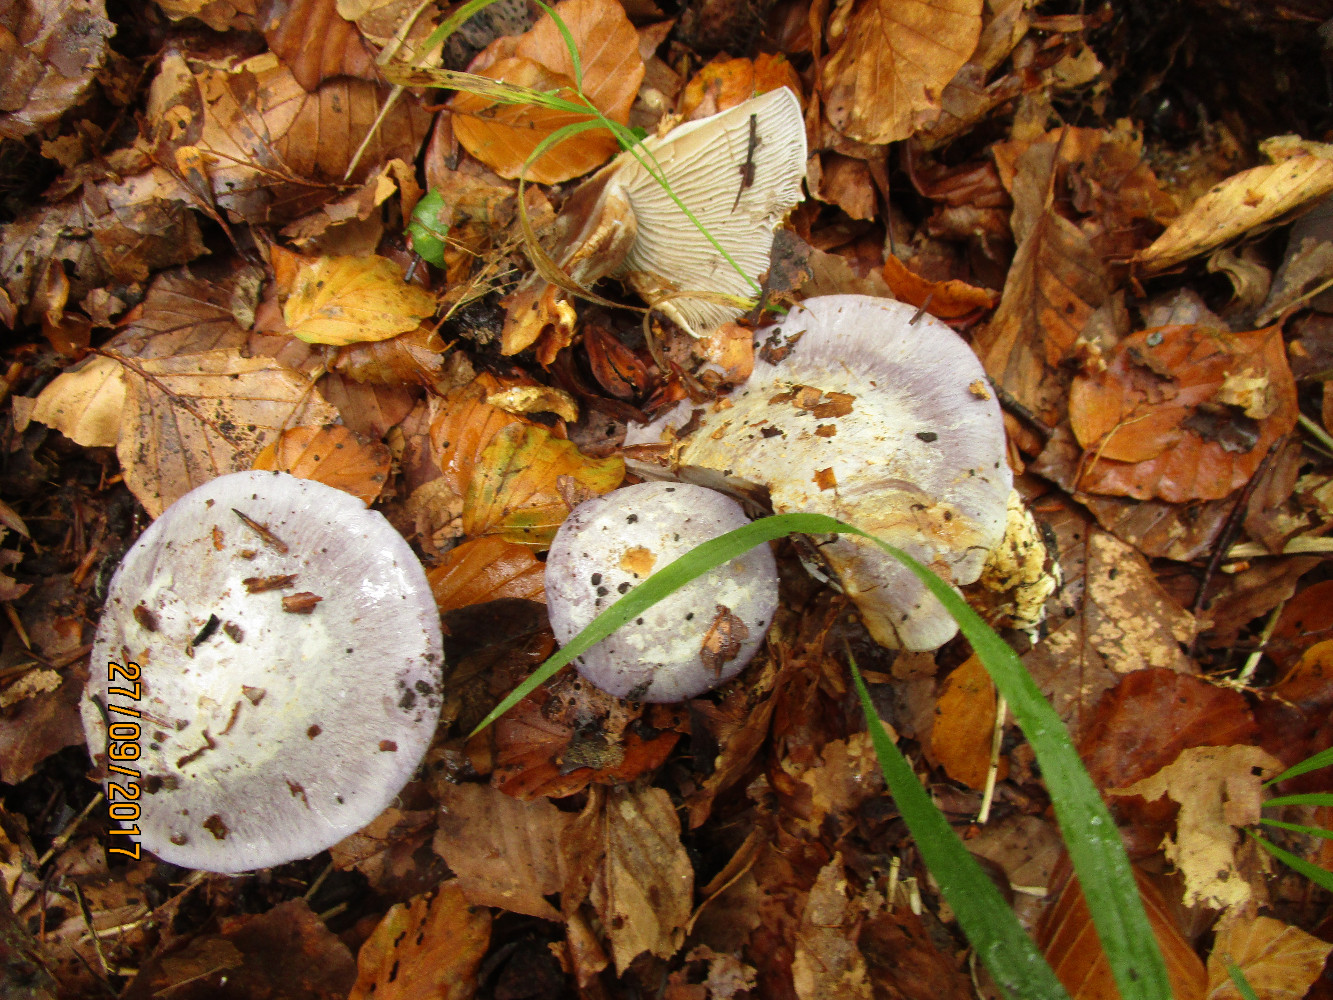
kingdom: Fungi
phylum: Basidiomycota
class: Agaricomycetes
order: Agaricales
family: Cortinariaceae
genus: Cortinarius
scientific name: Cortinarius caerulescens
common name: blåkødet slørhat
